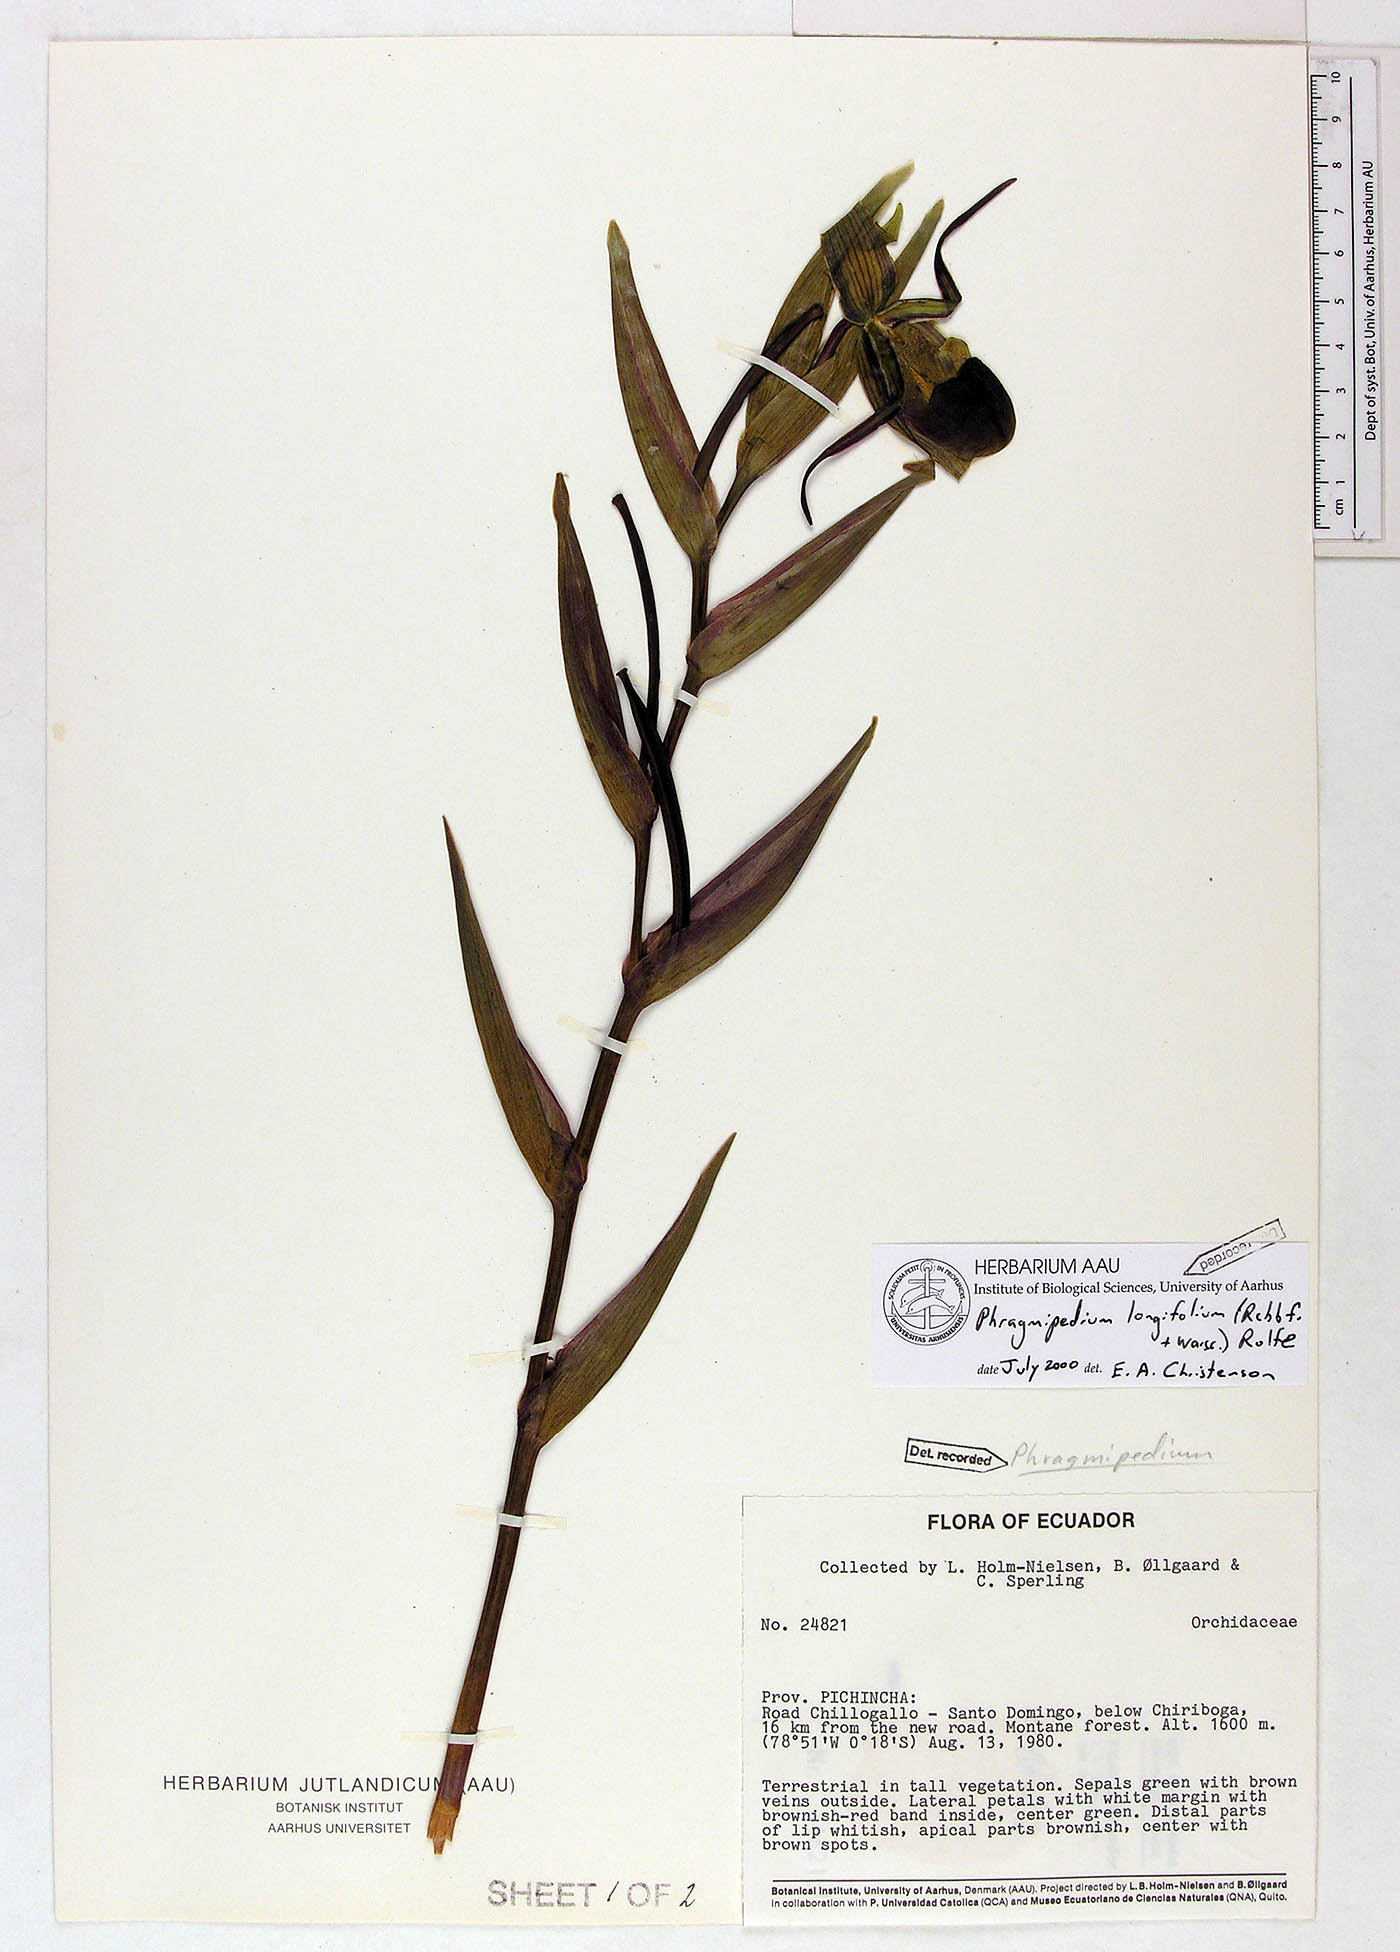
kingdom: Plantae
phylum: Tracheophyta
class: Liliopsida
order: Asparagales
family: Orchidaceae
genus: Phragmipedium
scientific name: Phragmipedium longifolium
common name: Long-leaf phragmipedium
